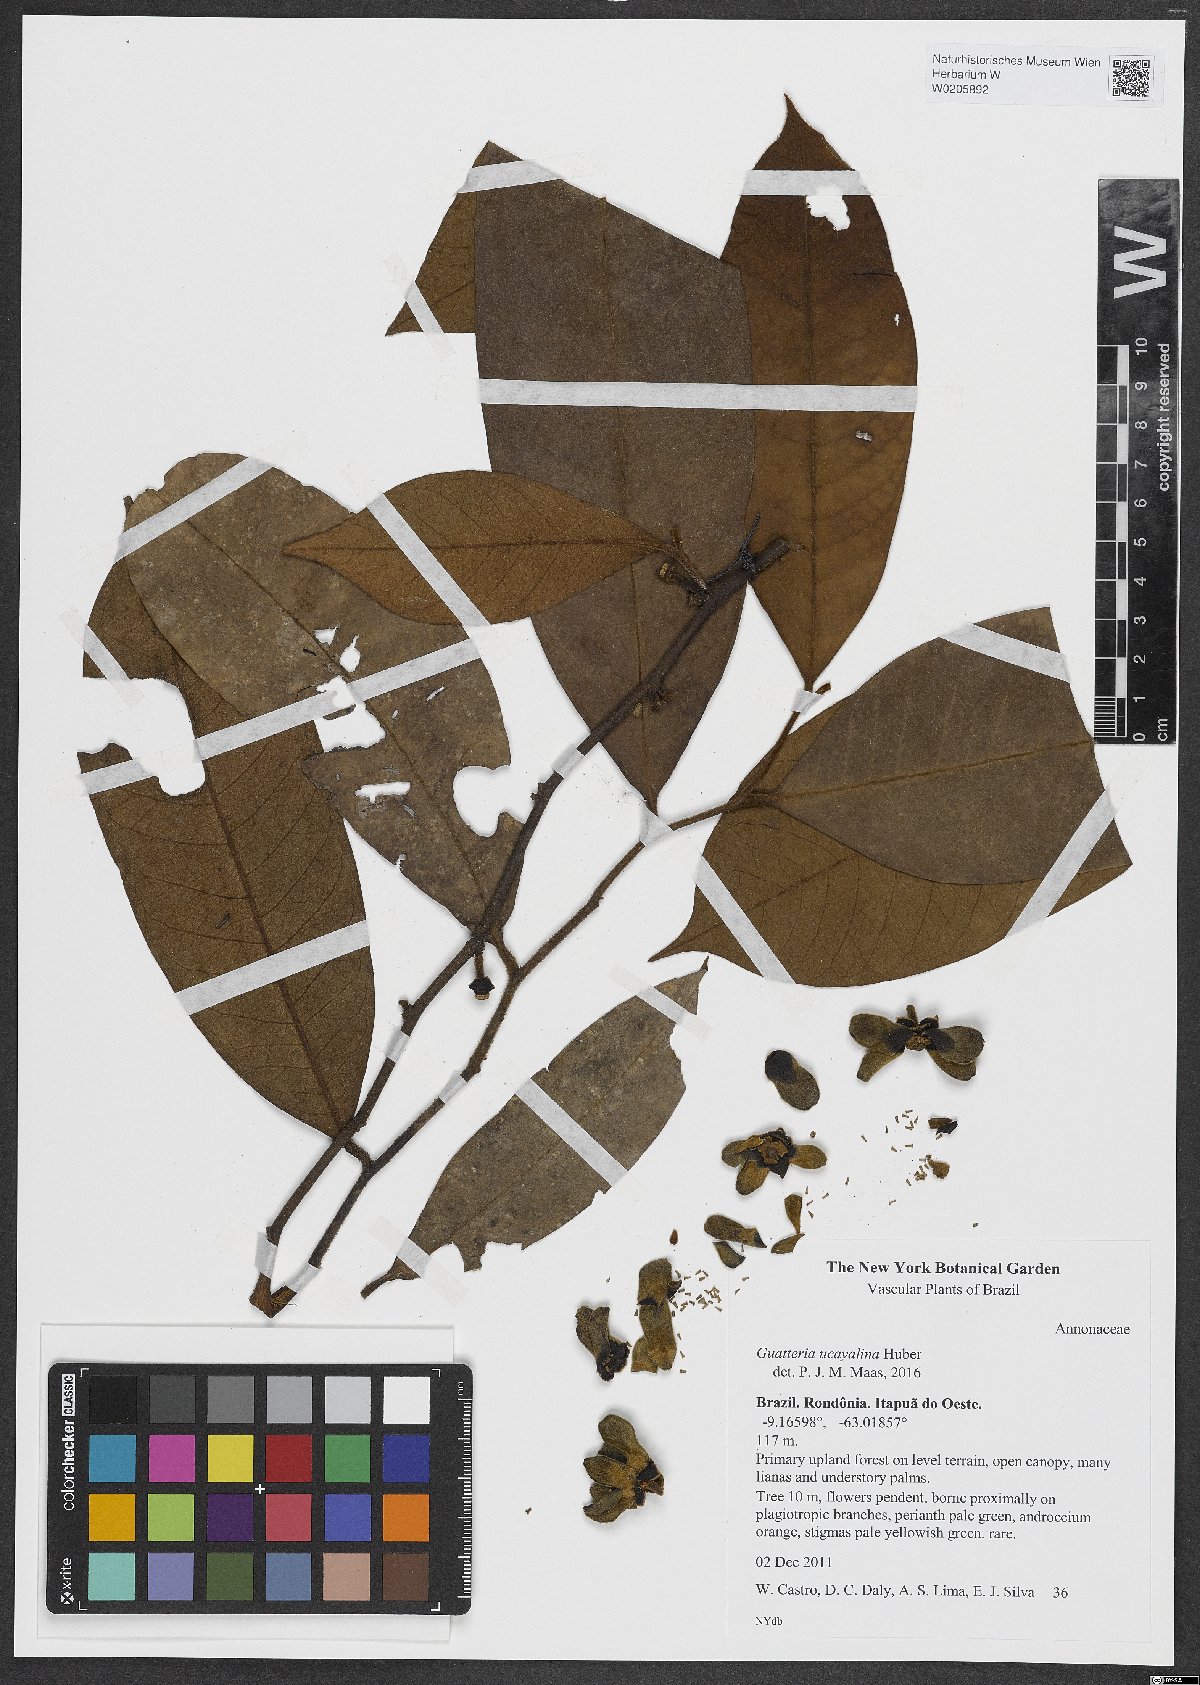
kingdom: Plantae
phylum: Tracheophyta
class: Magnoliopsida
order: Magnoliales
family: Annonaceae
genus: Guatteria
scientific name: Guatteria blepharophylla
